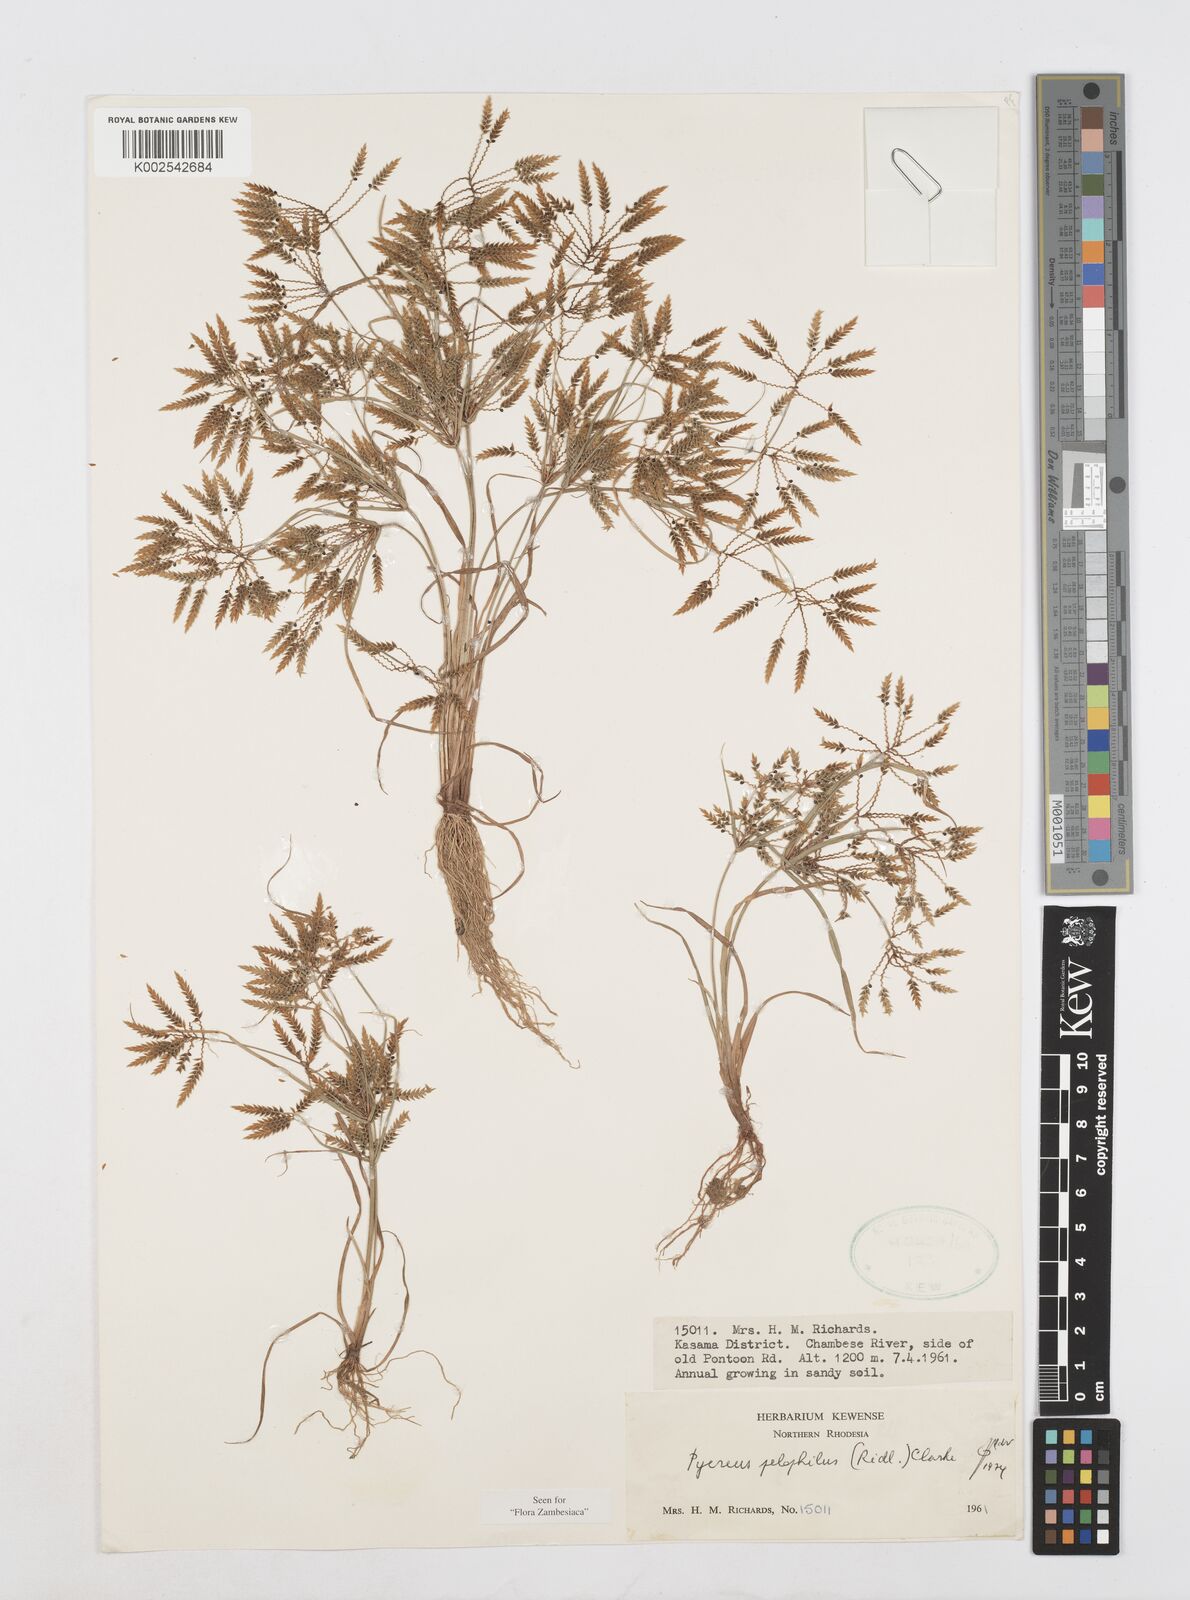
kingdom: Plantae
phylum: Tracheophyta
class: Liliopsida
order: Poales
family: Cyperaceae
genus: Cyperus
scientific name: Cyperus pelophilus
